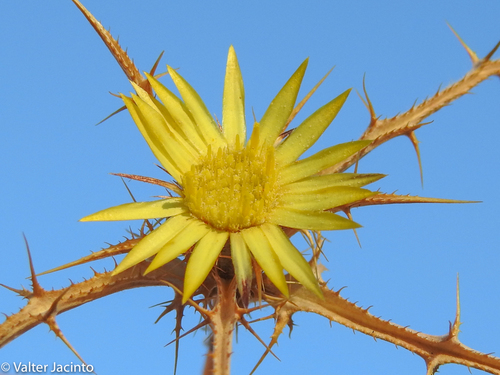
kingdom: Plantae
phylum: Tracheophyta
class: Magnoliopsida
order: Asterales
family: Asteraceae
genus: Carlina
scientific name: Carlina racemosa
